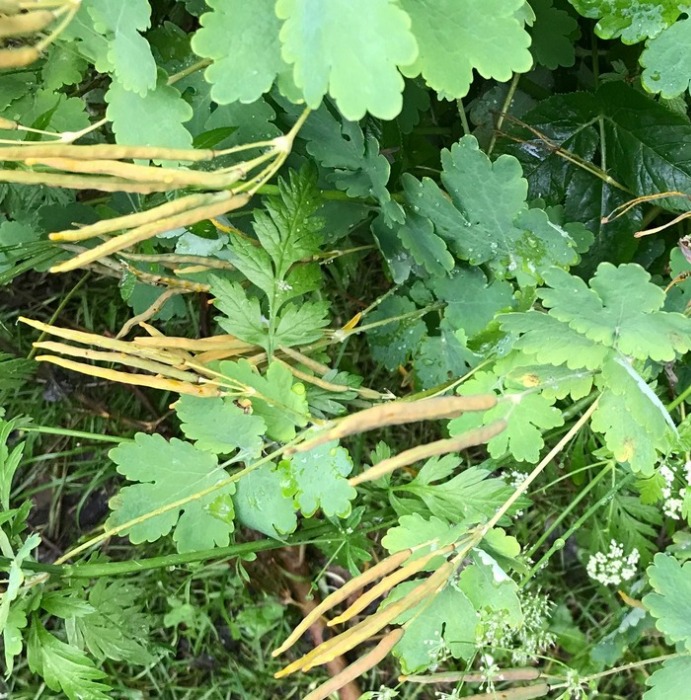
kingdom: Plantae
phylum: Tracheophyta
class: Magnoliopsida
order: Ranunculales
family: Papaveraceae
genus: Chelidonium
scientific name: Chelidonium majus
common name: Svaleurt
